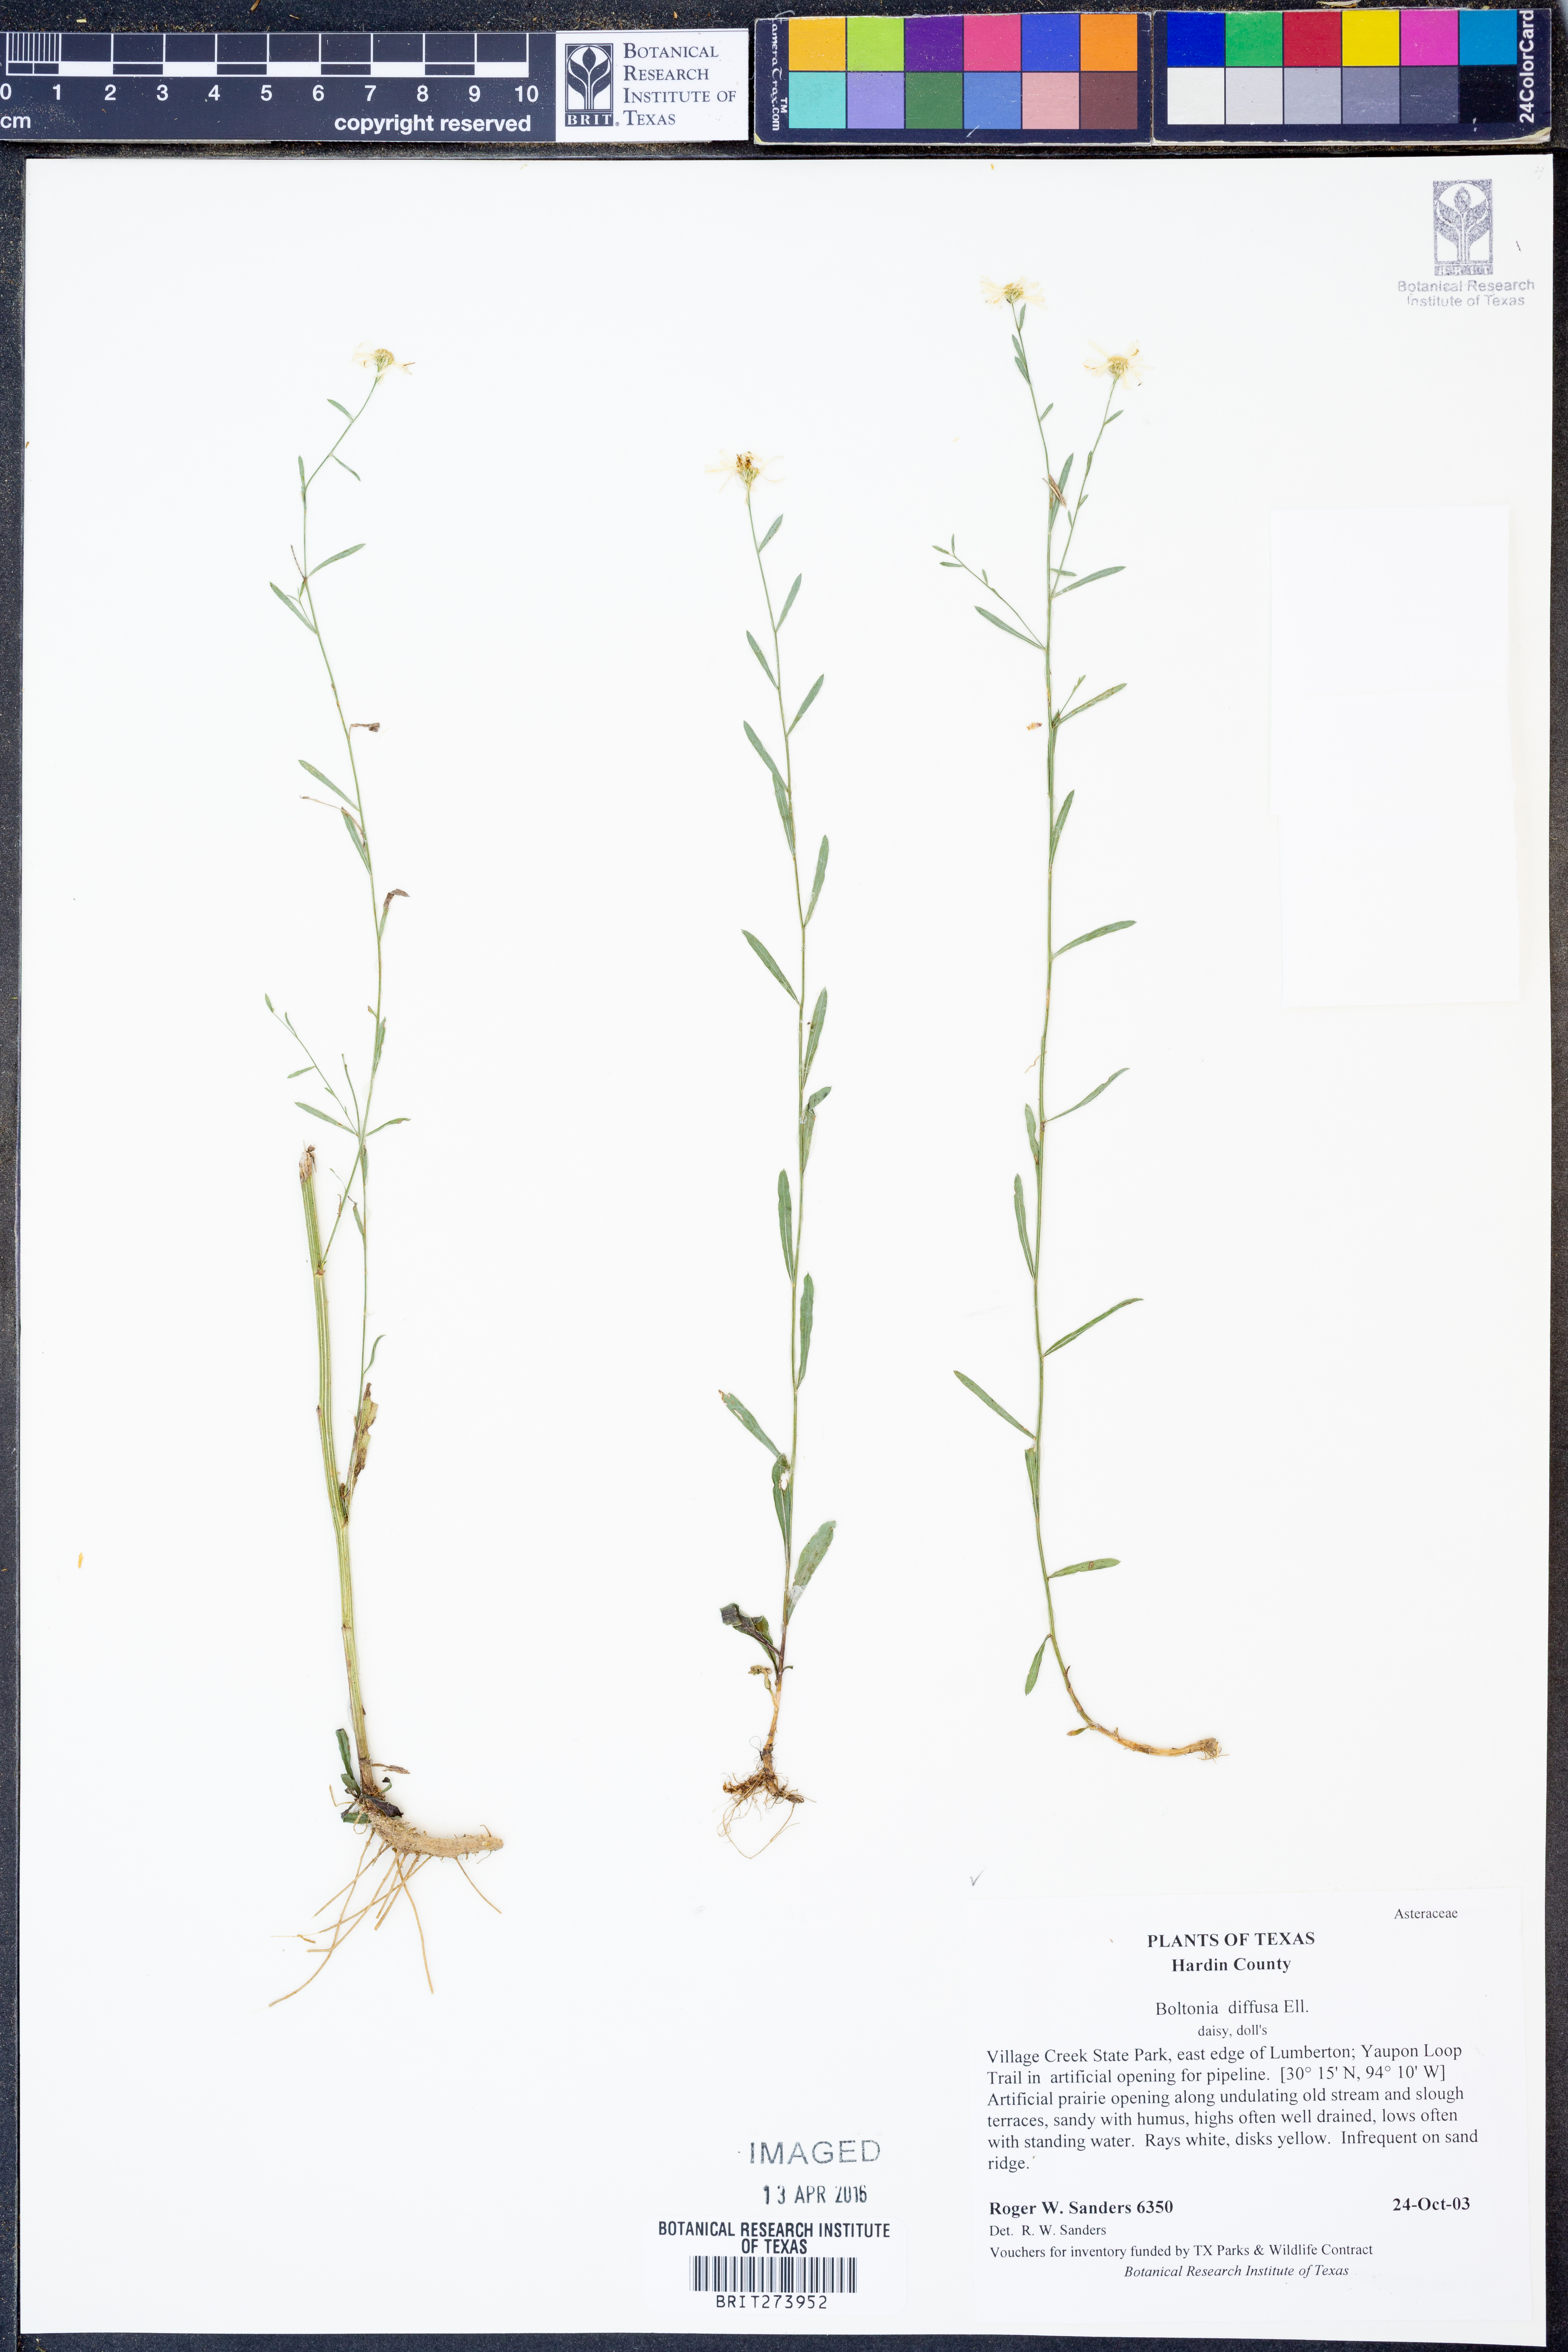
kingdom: Plantae
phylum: Tracheophyta
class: Magnoliopsida
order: Asterales
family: Asteraceae
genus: Boltonia
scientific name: Boltonia diffusa
